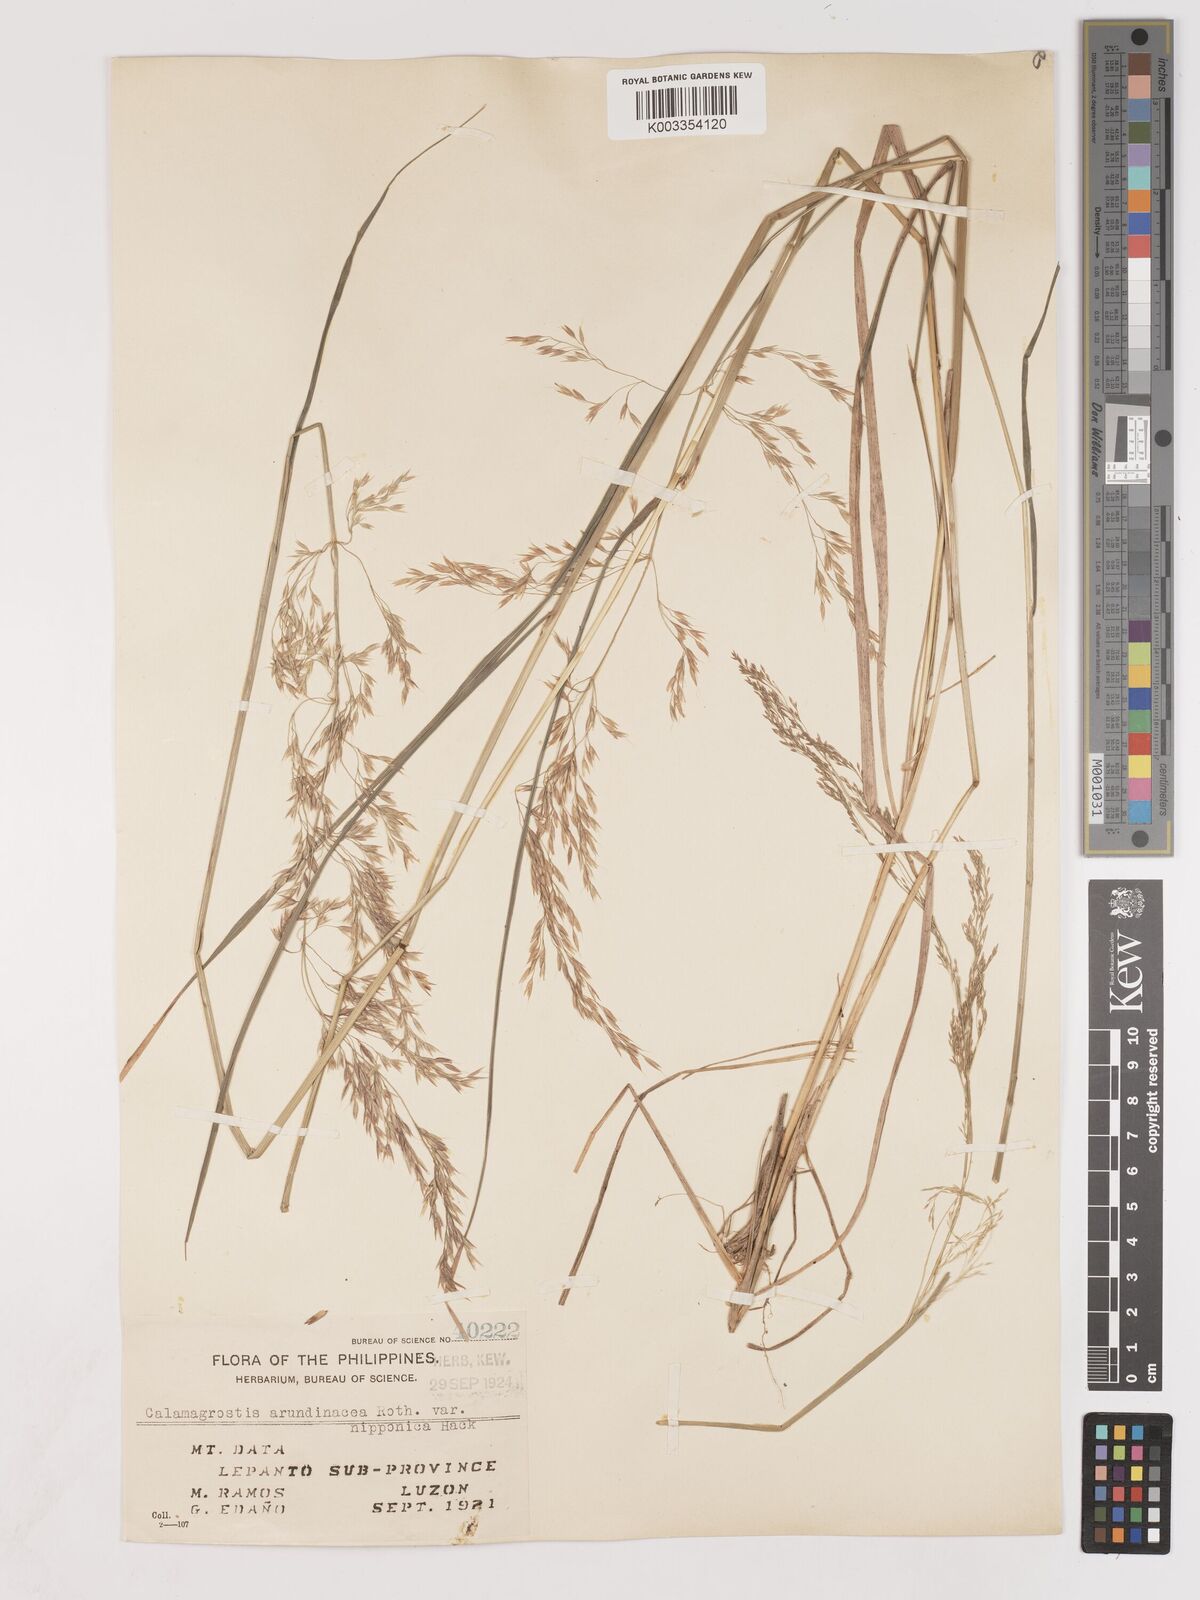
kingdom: Plantae
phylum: Tracheophyta
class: Liliopsida
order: Poales
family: Poaceae
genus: Calamagrostis
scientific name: Calamagrostis
